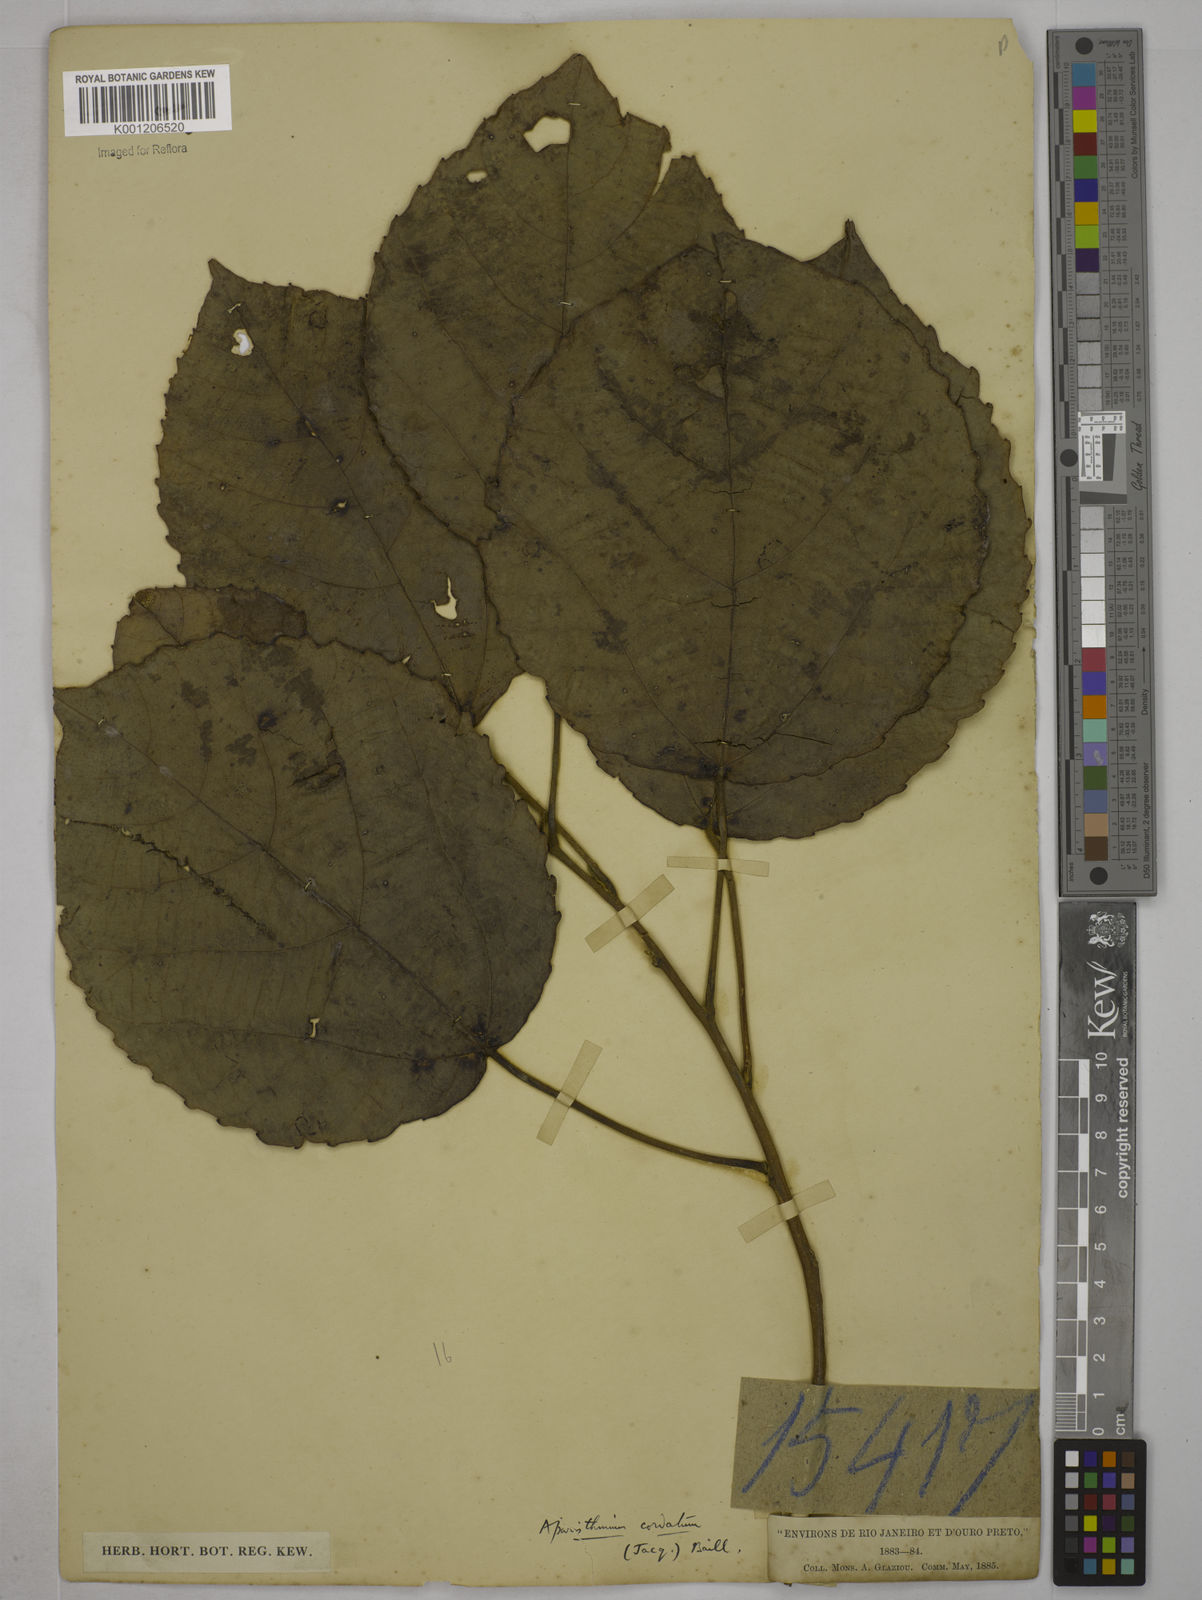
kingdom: Plantae
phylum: Tracheophyta
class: Magnoliopsida
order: Malpighiales
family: Euphorbiaceae
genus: Aparisthmium
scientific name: Aparisthmium cordatum
